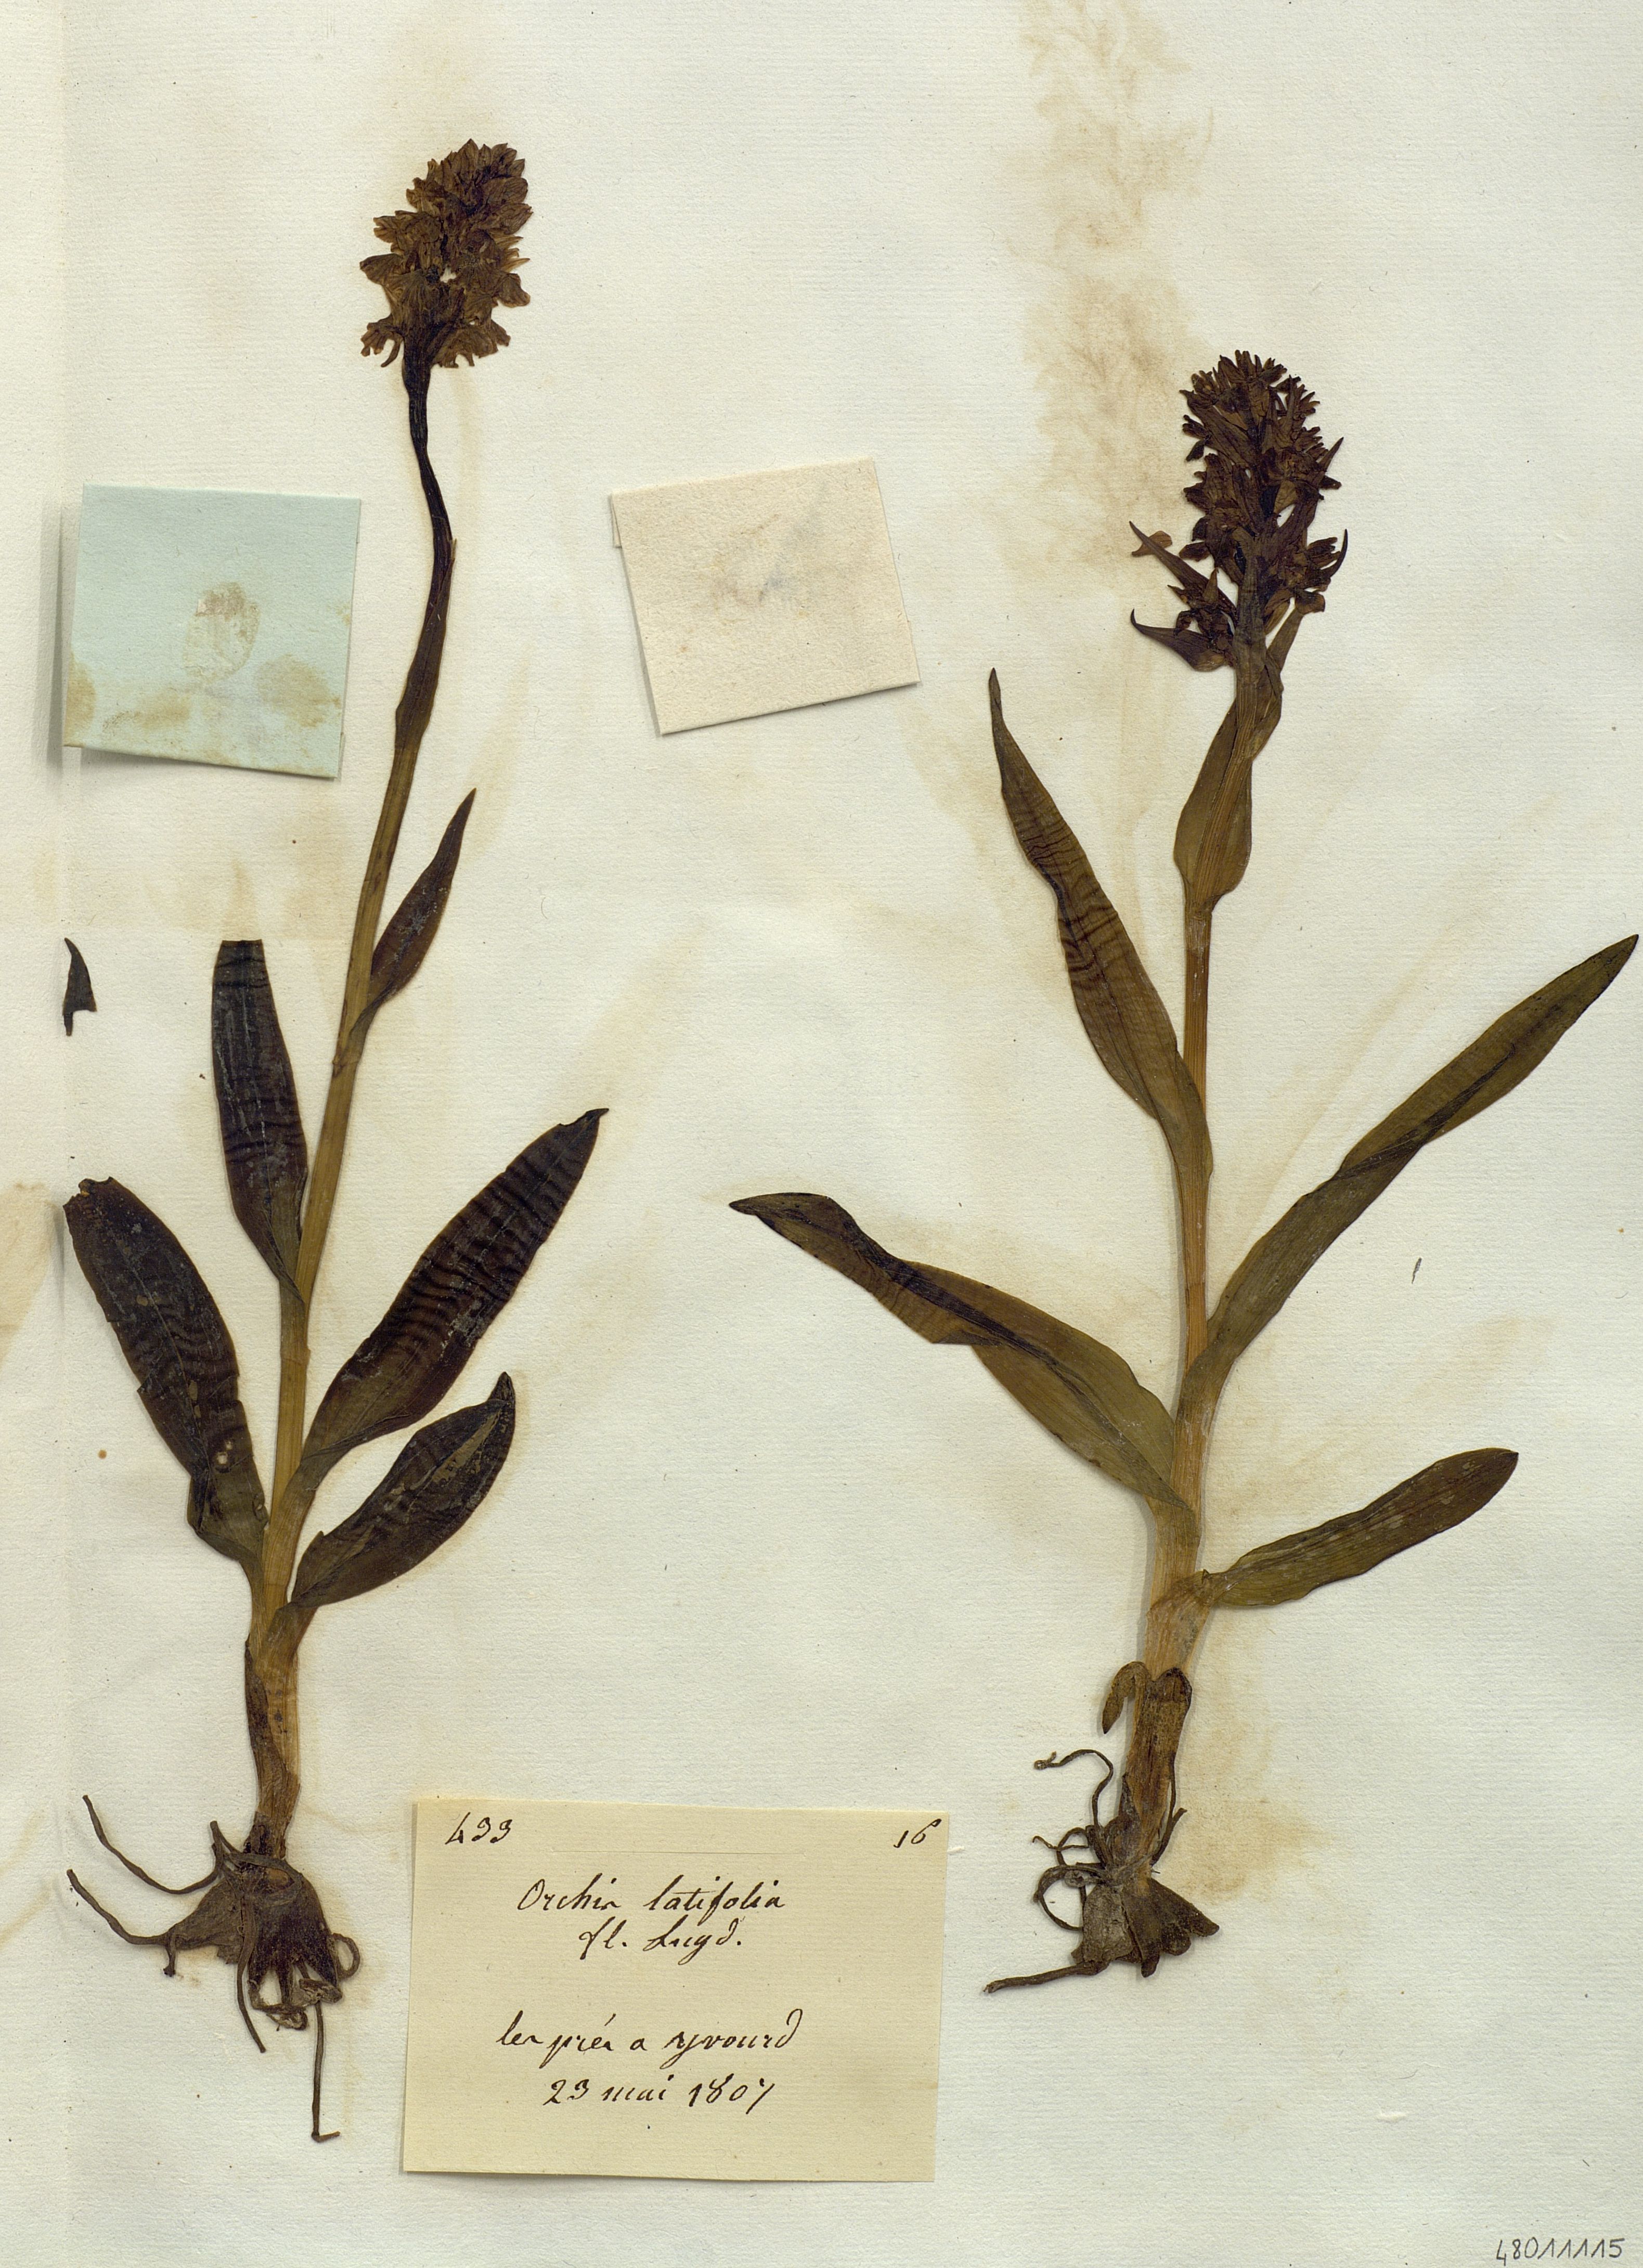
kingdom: Plantae
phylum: Tracheophyta
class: Liliopsida
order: Asparagales
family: Orchidaceae
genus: Dactylorhiza
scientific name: Dactylorhiza
